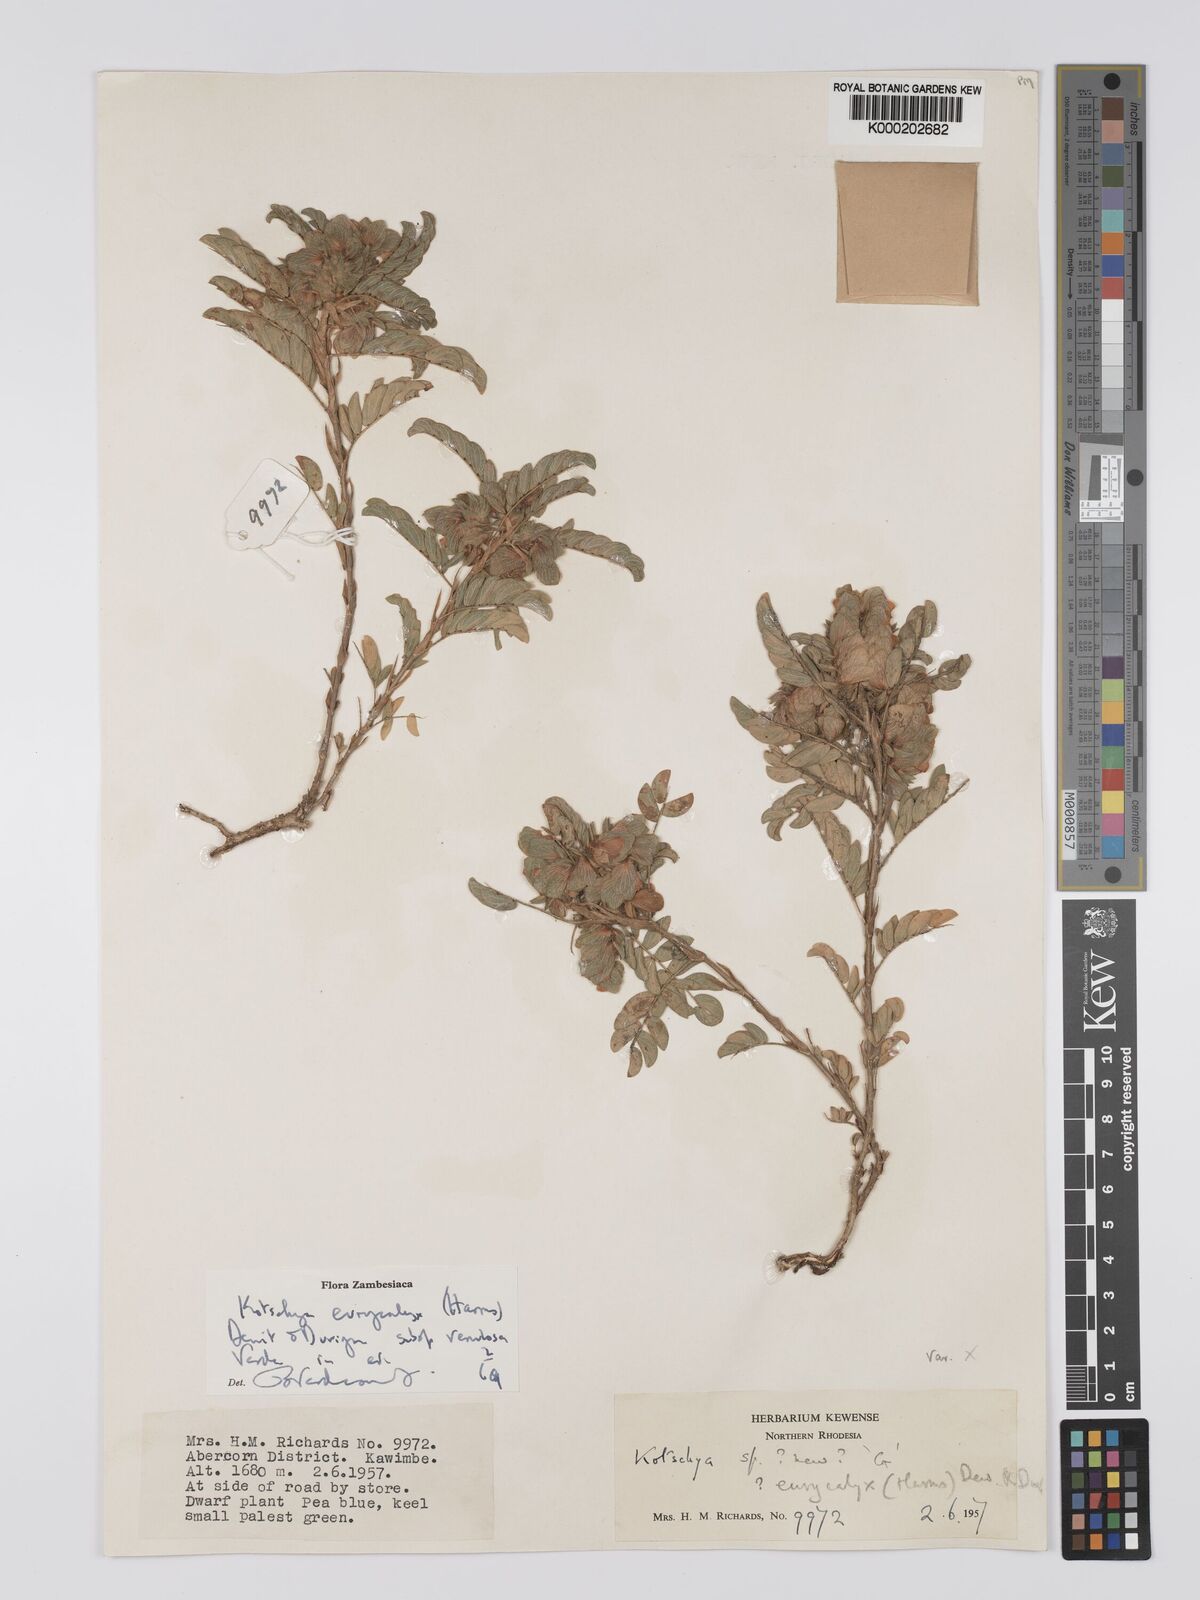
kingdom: Plantae
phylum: Tracheophyta
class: Magnoliopsida
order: Fabales
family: Fabaceae
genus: Kotschya
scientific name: Kotschya eurycalyx
